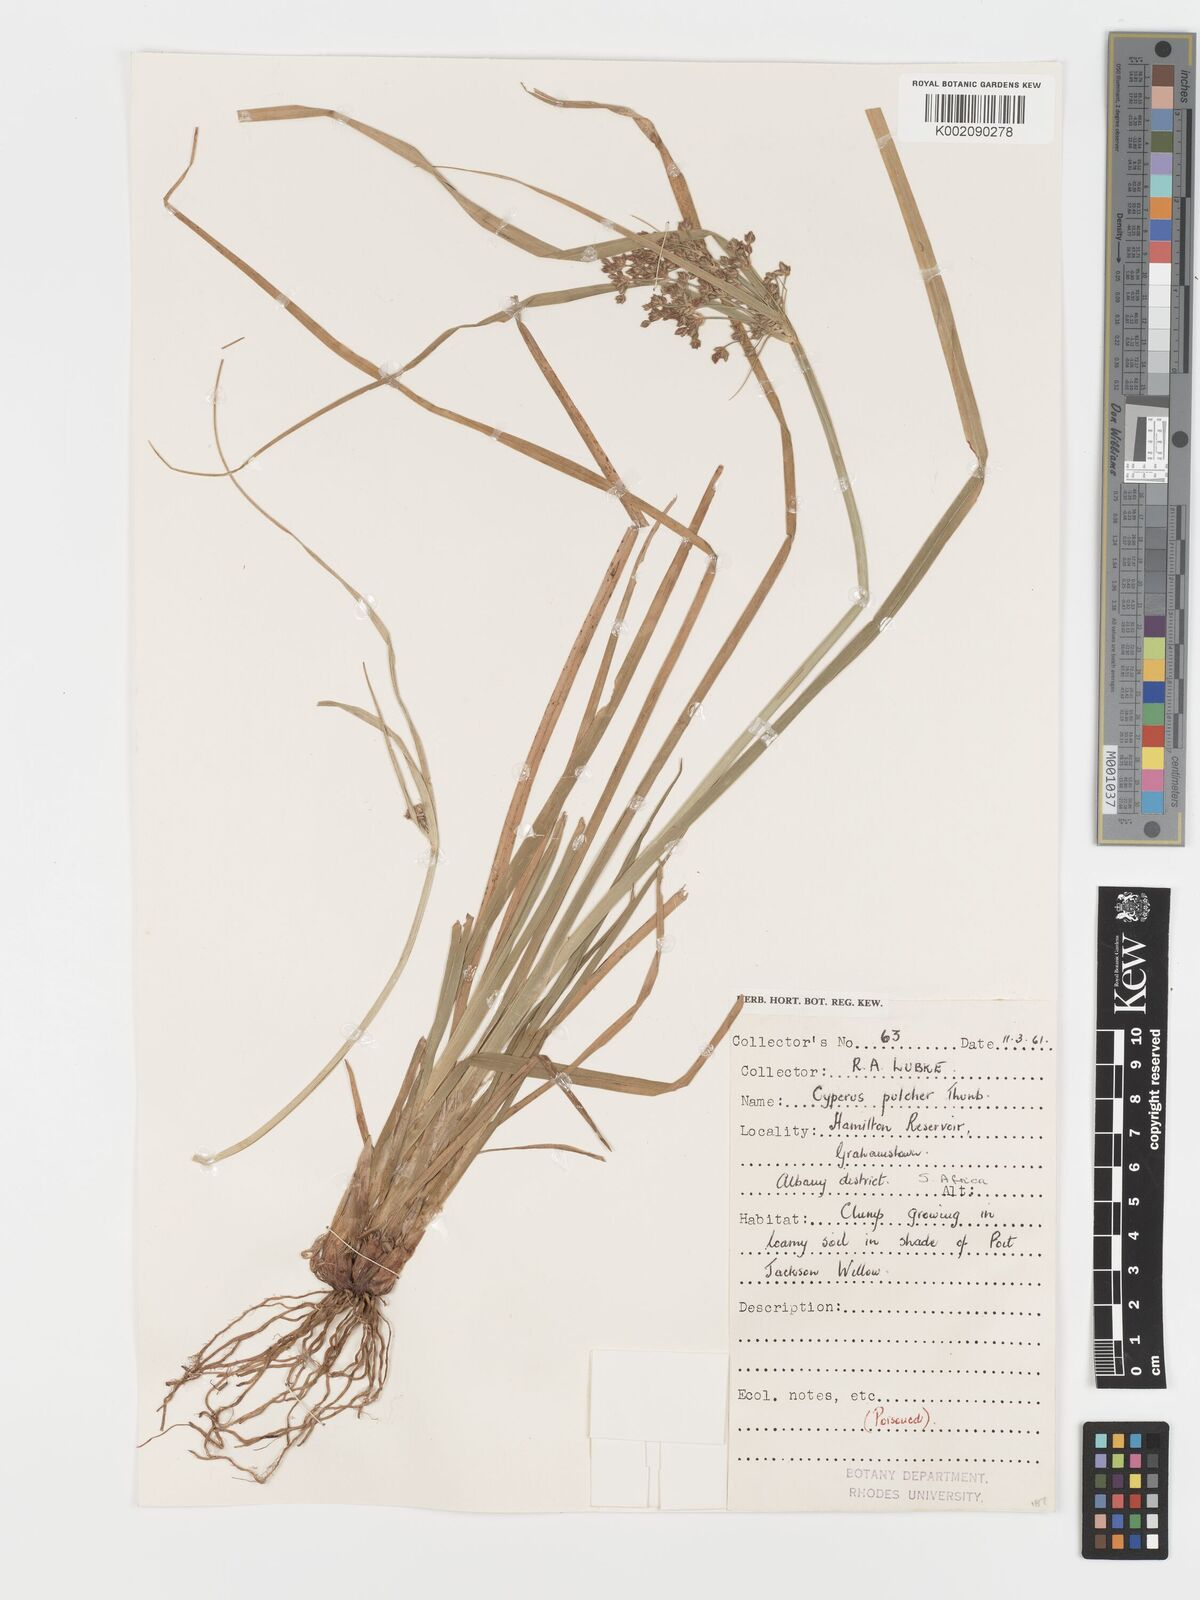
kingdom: Plantae
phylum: Tracheophyta
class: Liliopsida
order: Poales
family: Cyperaceae
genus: Cyperus
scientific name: Cyperus pulcher
